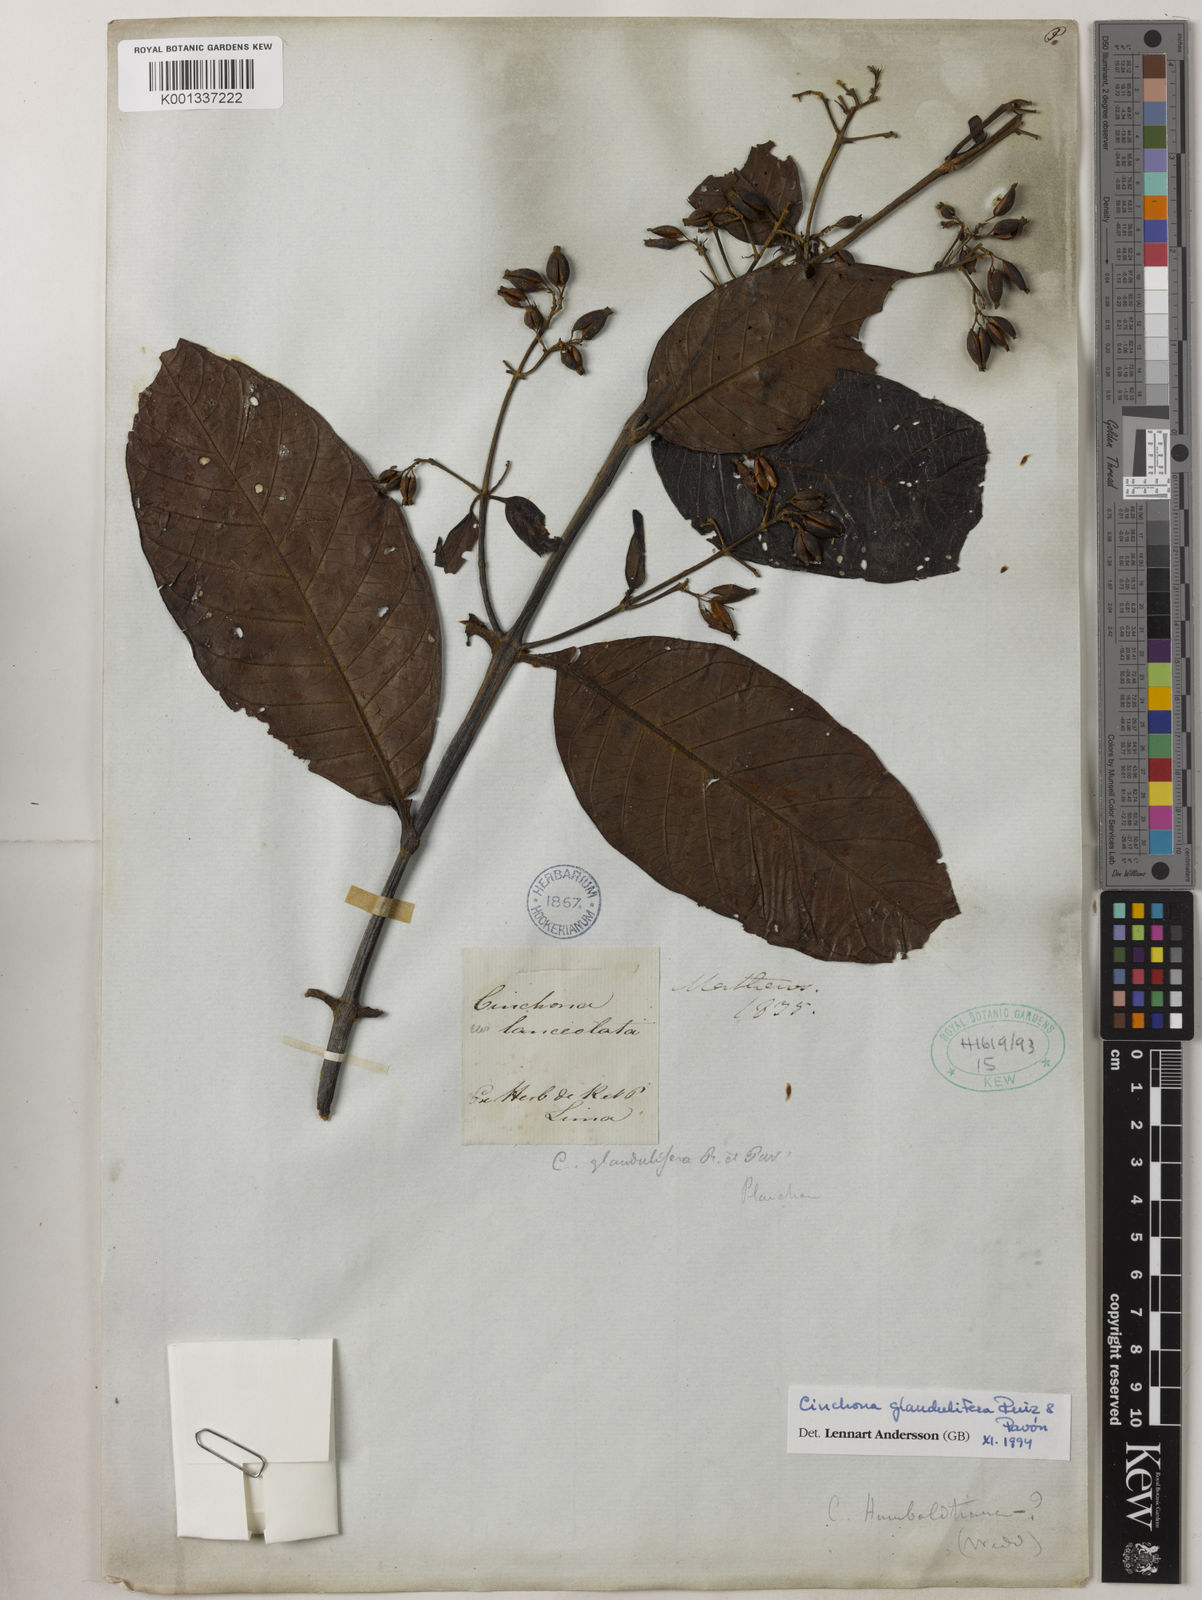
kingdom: Plantae
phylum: Tracheophyta
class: Magnoliopsida
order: Gentianales
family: Rubiaceae
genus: Cinchona
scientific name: Cinchona glandulifera
